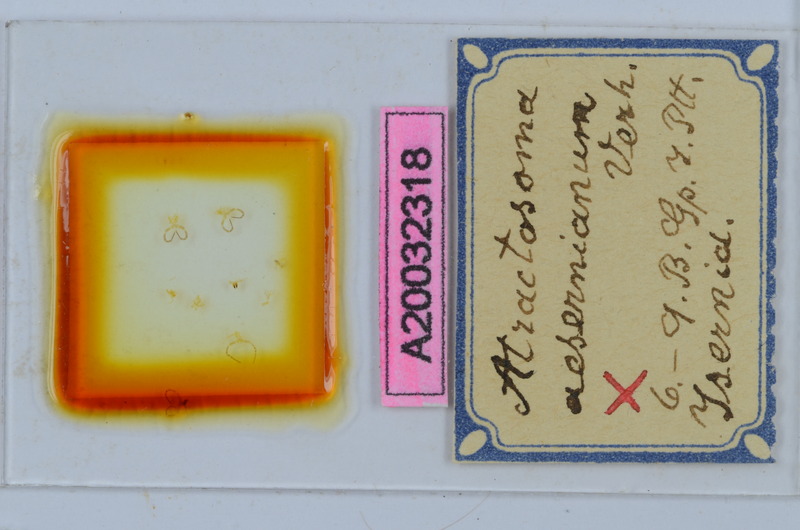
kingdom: Animalia
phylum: Arthropoda
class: Diplopoda
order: Chordeumatida
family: Craspedosomatidae
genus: Atractosoma
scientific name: Atractosoma
